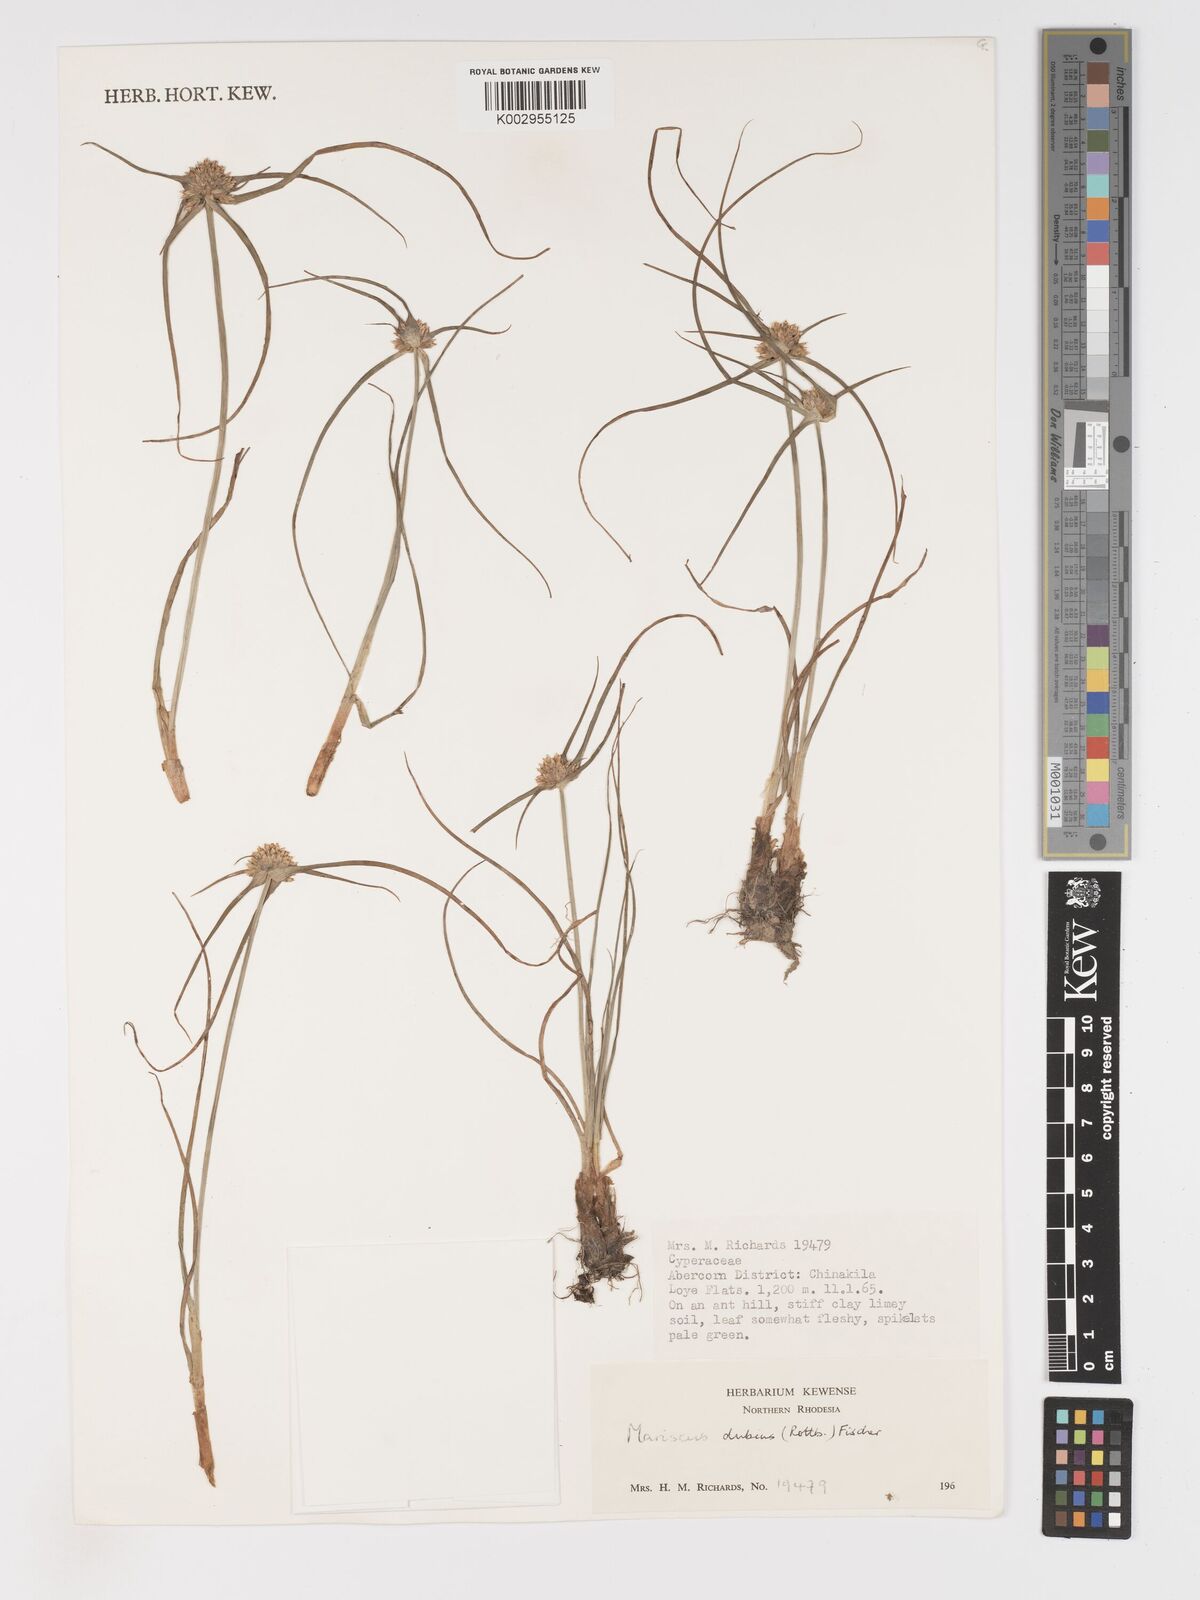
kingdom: Plantae
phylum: Tracheophyta
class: Liliopsida
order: Poales
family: Cyperaceae
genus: Cyperus
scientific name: Cyperus dubius
